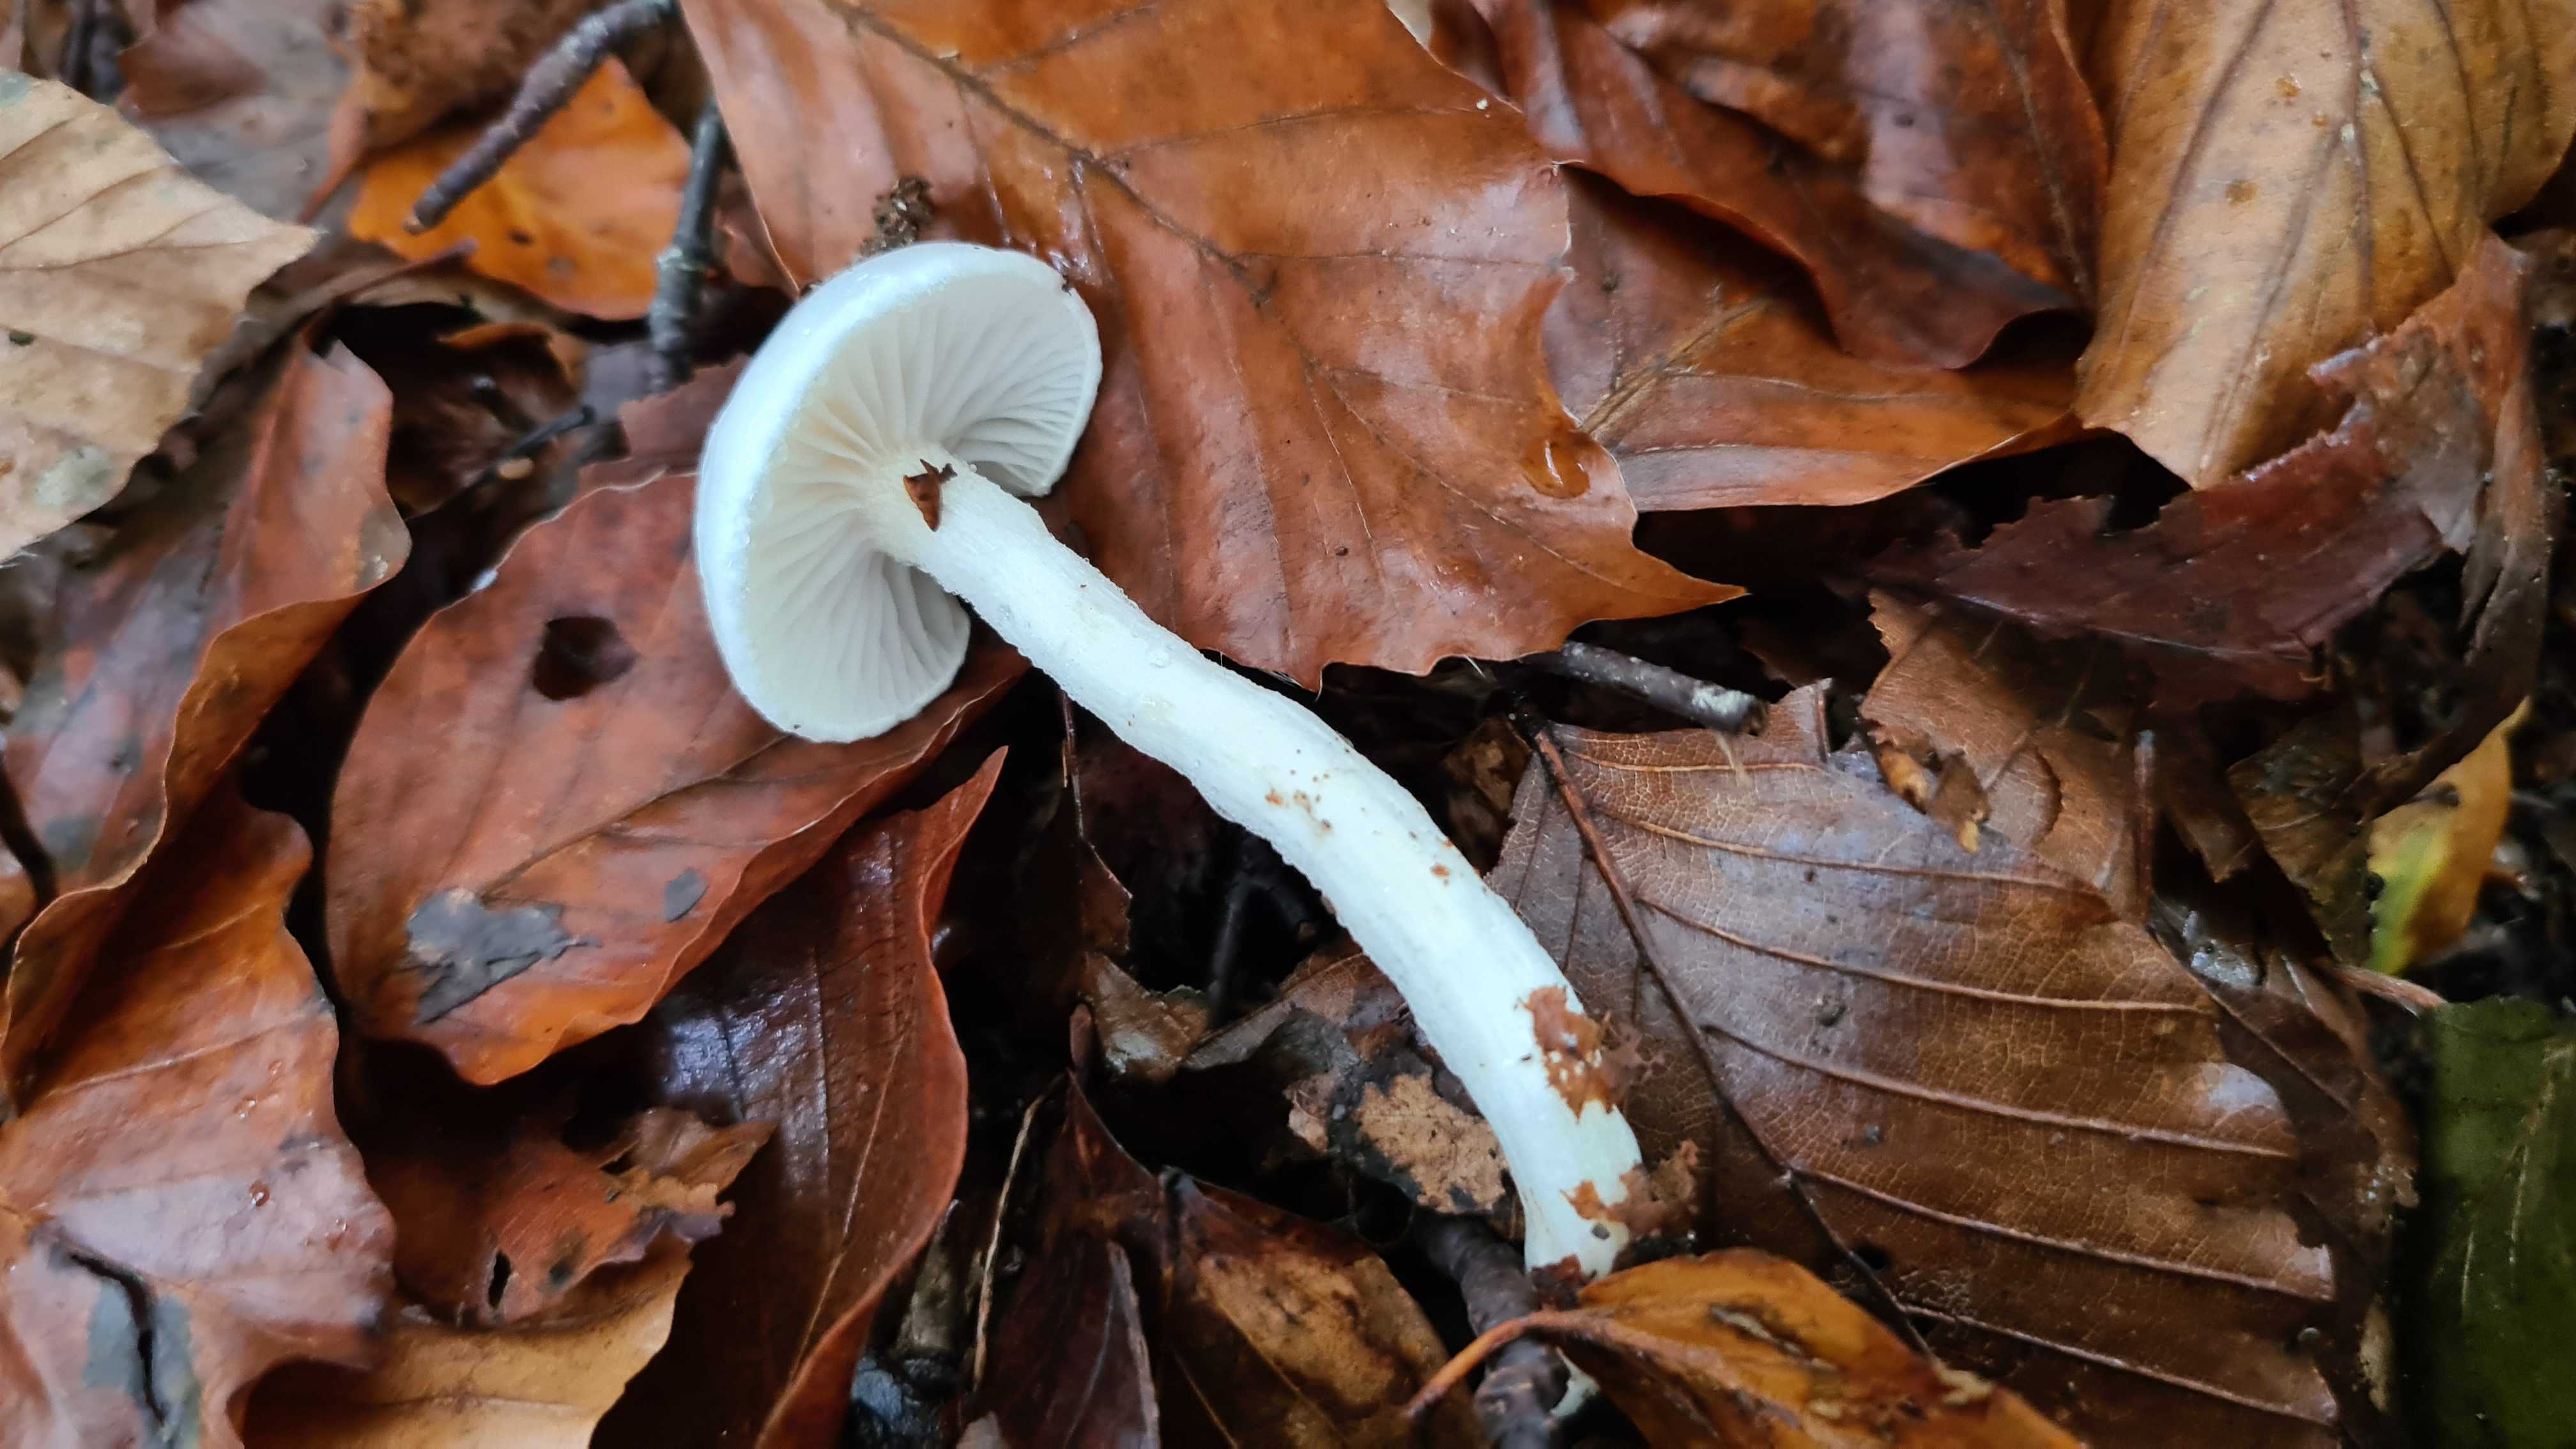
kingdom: Fungi
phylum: Basidiomycota
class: Agaricomycetes
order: Agaricales
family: Hygrophoraceae
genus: Hygrophorus
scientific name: Hygrophorus eburneus
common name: elfenbens-sneglehat
